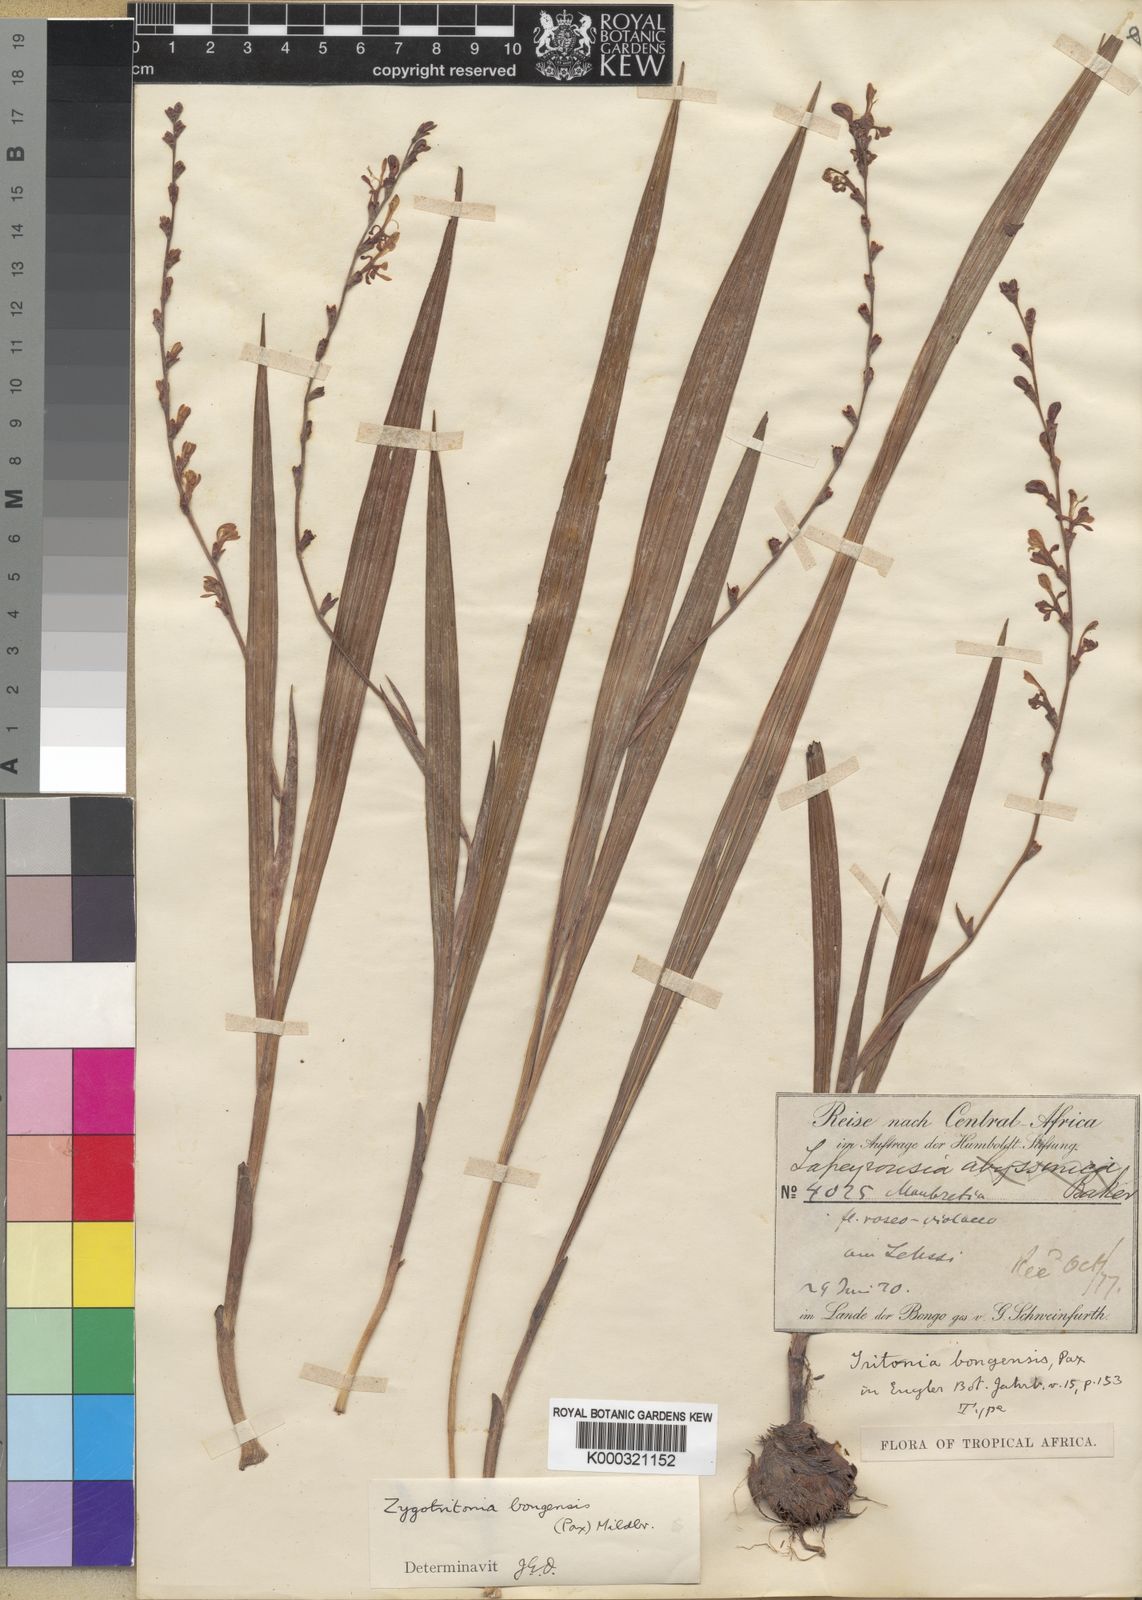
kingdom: Plantae
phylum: Tracheophyta
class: Liliopsida
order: Asparagales
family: Iridaceae
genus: Zygotritonia
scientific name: Zygotritonia bongensis
